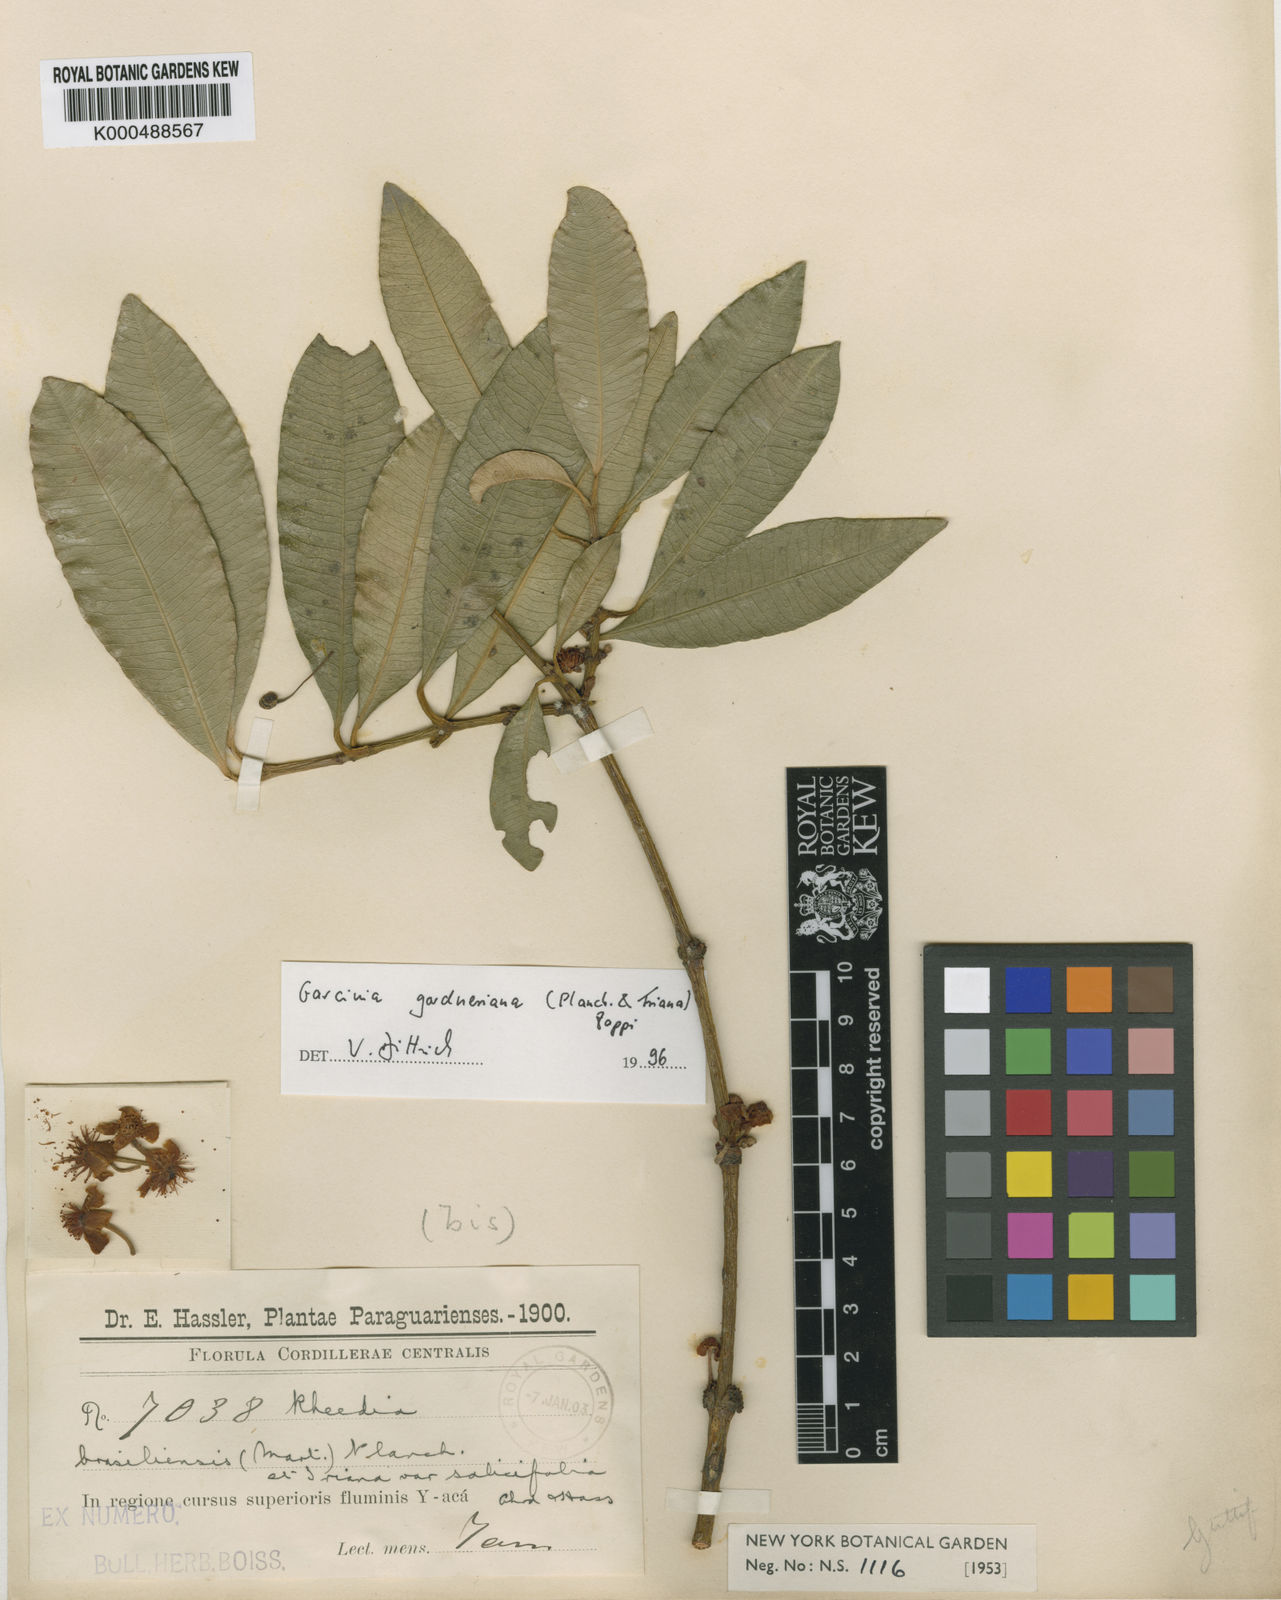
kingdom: Plantae
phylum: Tracheophyta
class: Magnoliopsida
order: Malpighiales
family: Clusiaceae
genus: Garcinia
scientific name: Garcinia brasiliensis
